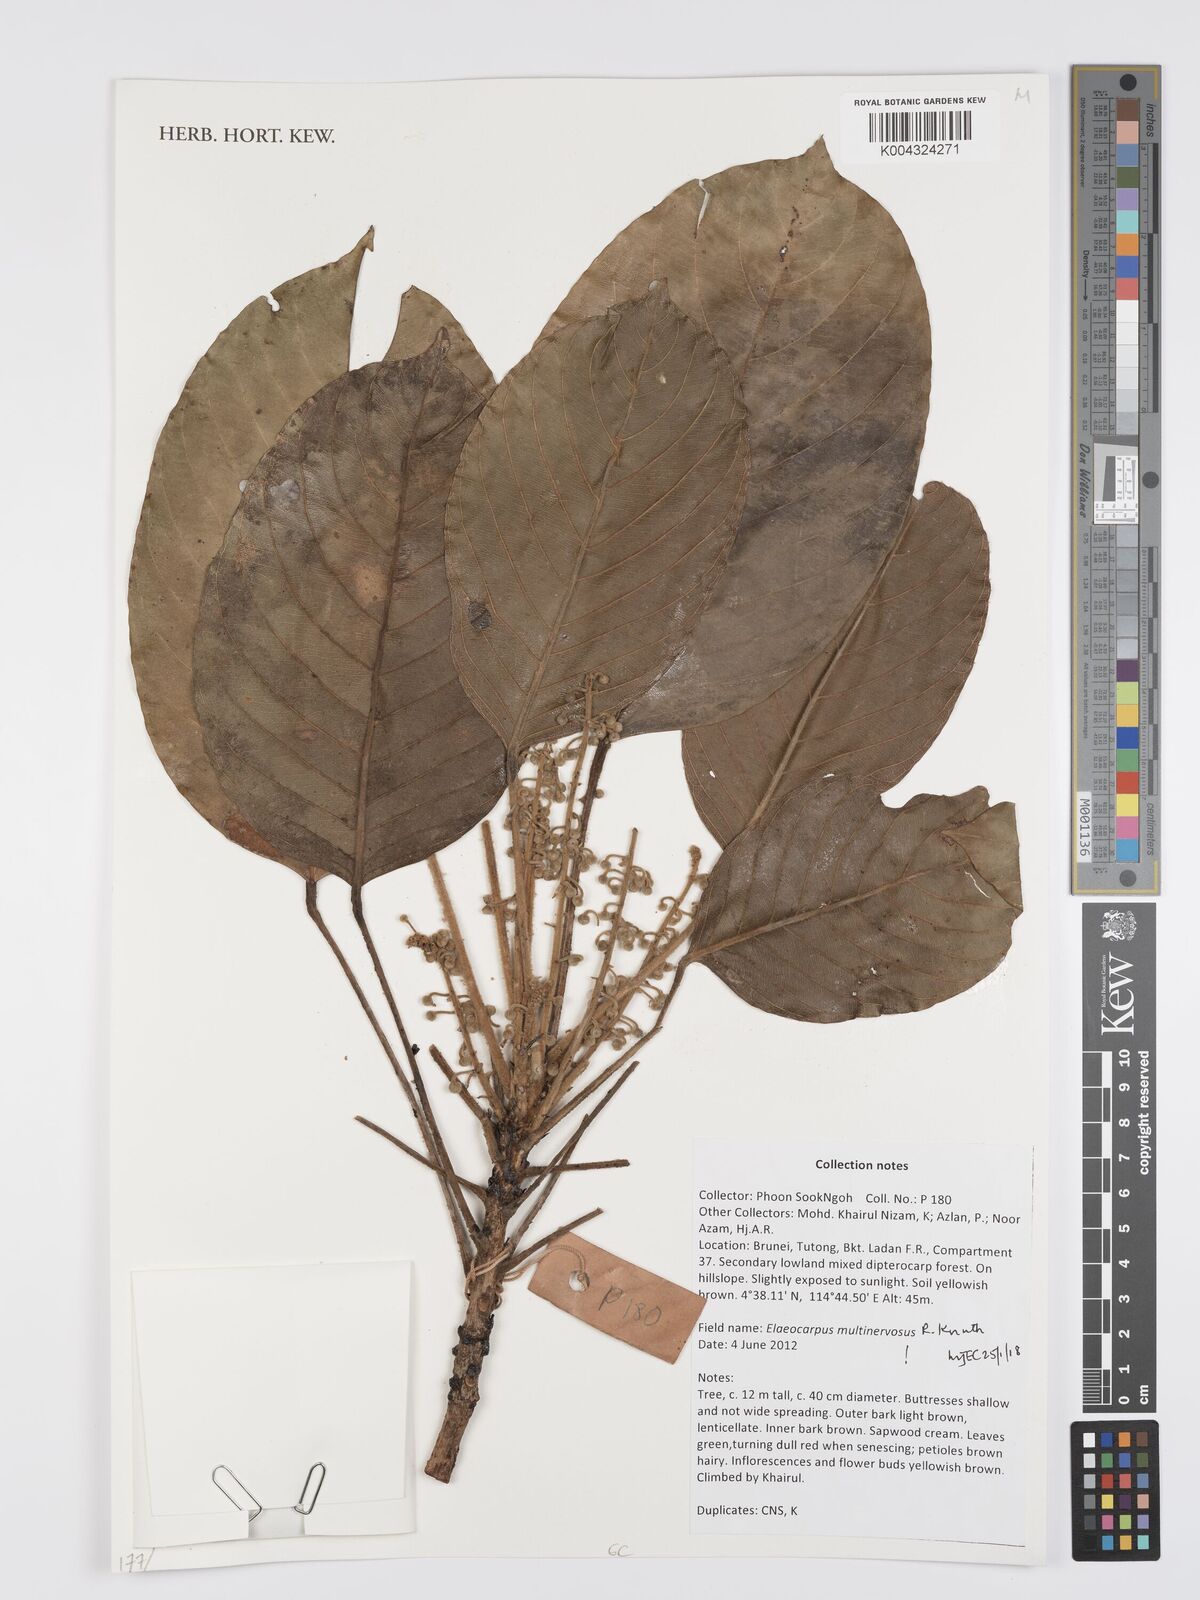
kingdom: Plantae
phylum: Tracheophyta
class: Magnoliopsida
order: Oxalidales
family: Elaeocarpaceae
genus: Elaeocarpus
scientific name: Elaeocarpus multinervosus
